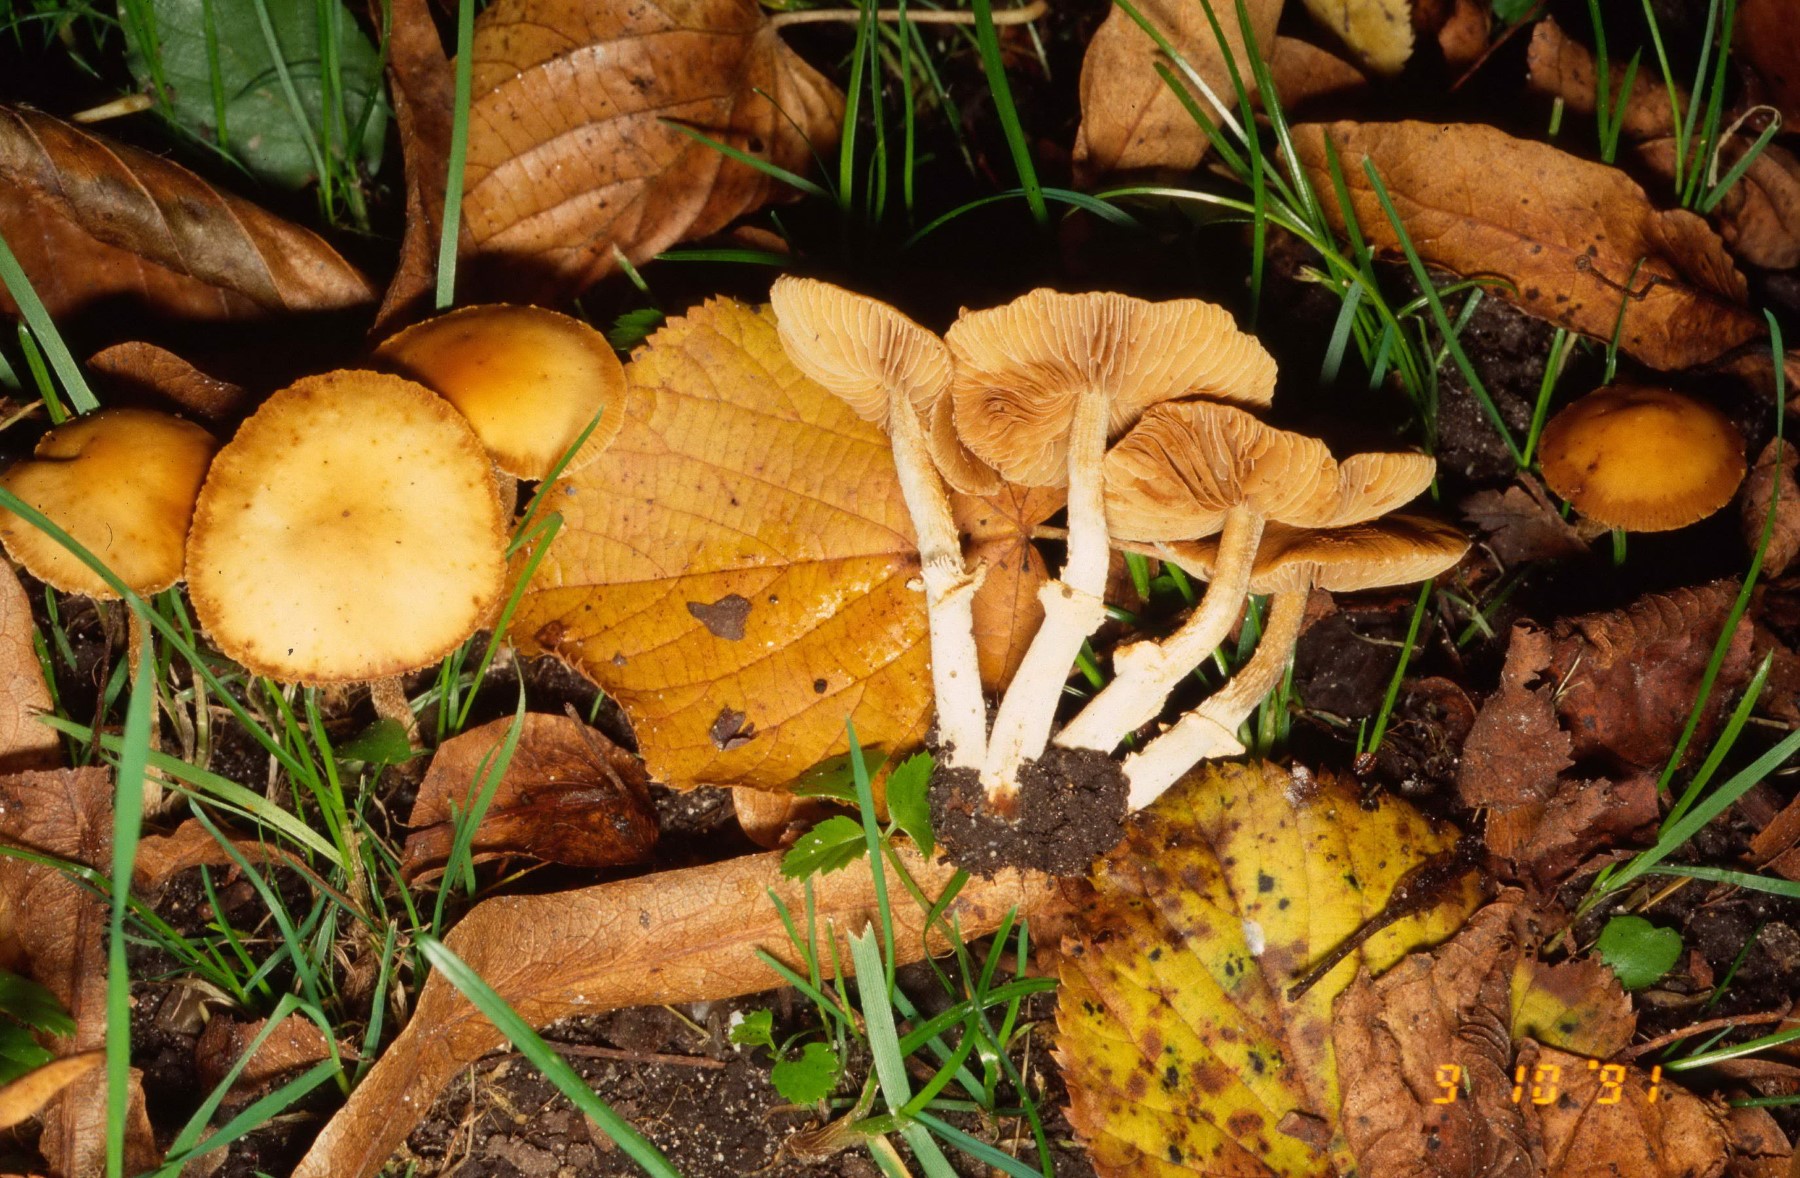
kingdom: Fungi
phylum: Basidiomycota
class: Agaricomycetes
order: Agaricales
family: Bolbitiaceae
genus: Conocybe
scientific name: Conocybe arrhenii
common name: ring-dansehat
